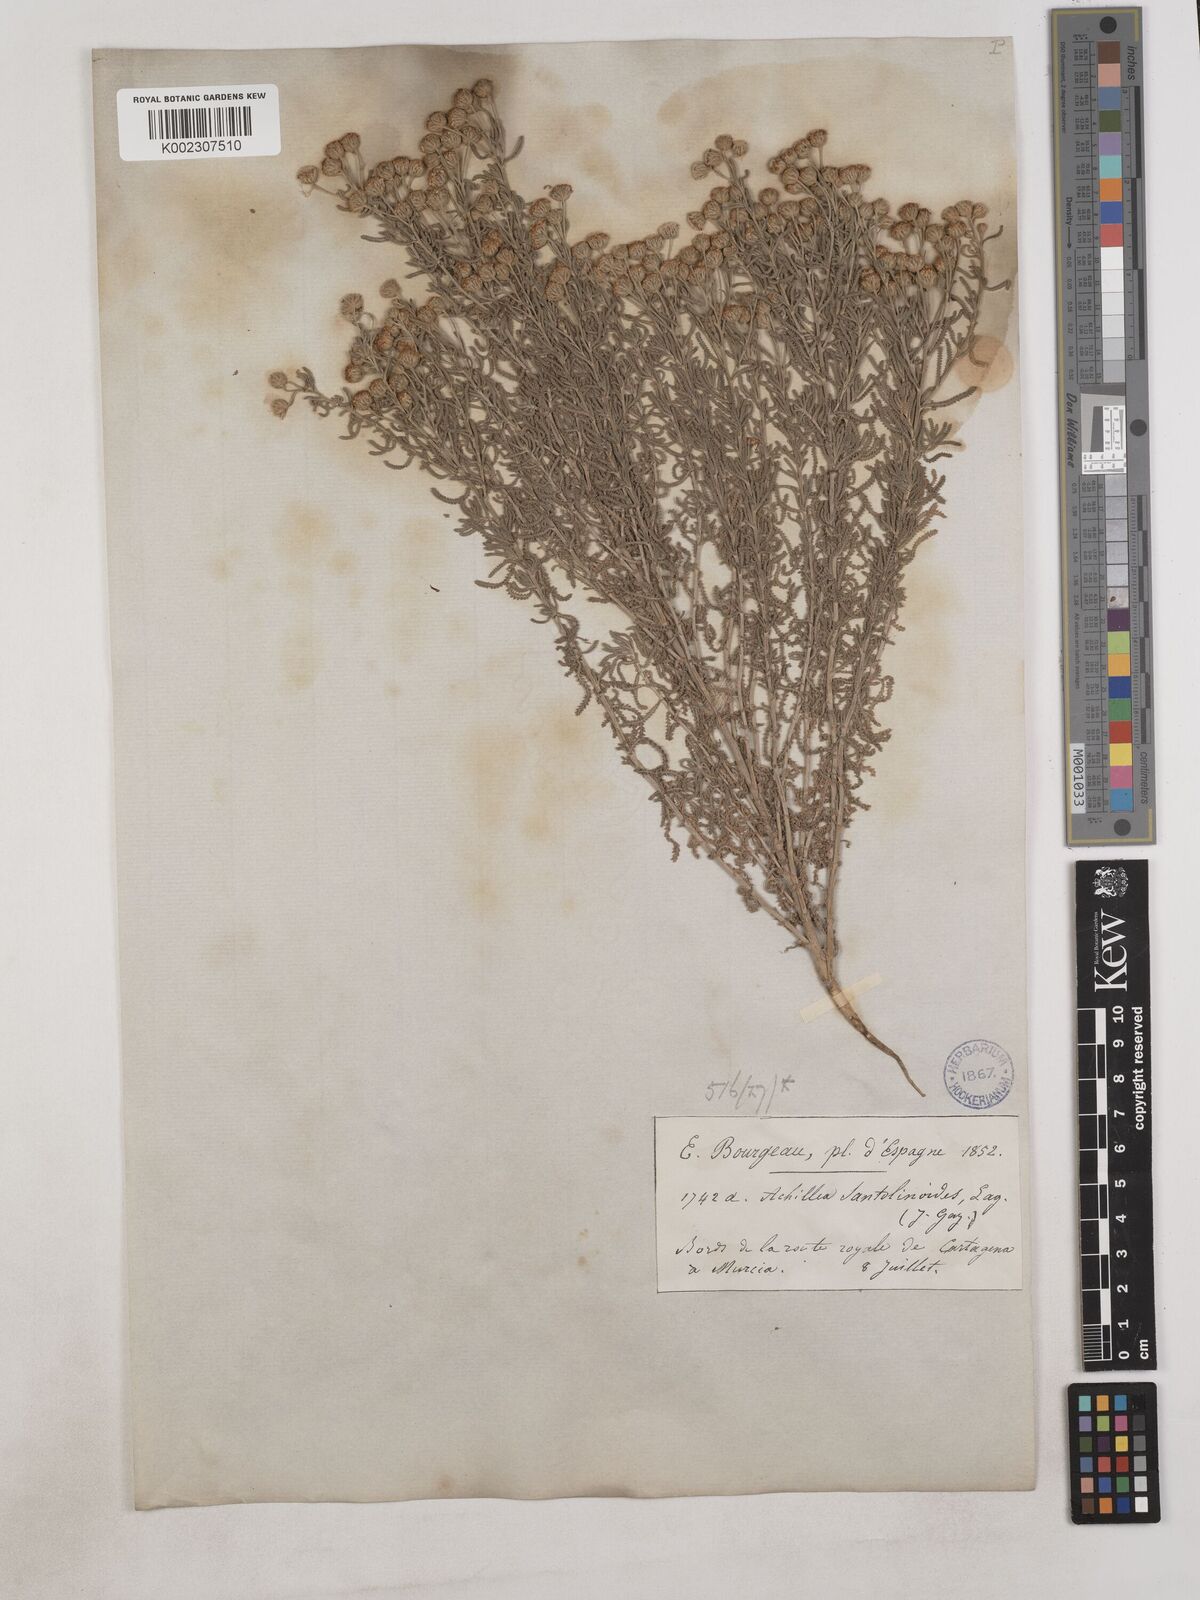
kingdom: Plantae
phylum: Tracheophyta
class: Magnoliopsida
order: Asterales
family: Asteraceae
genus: Achillea
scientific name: Achillea santolinoides
